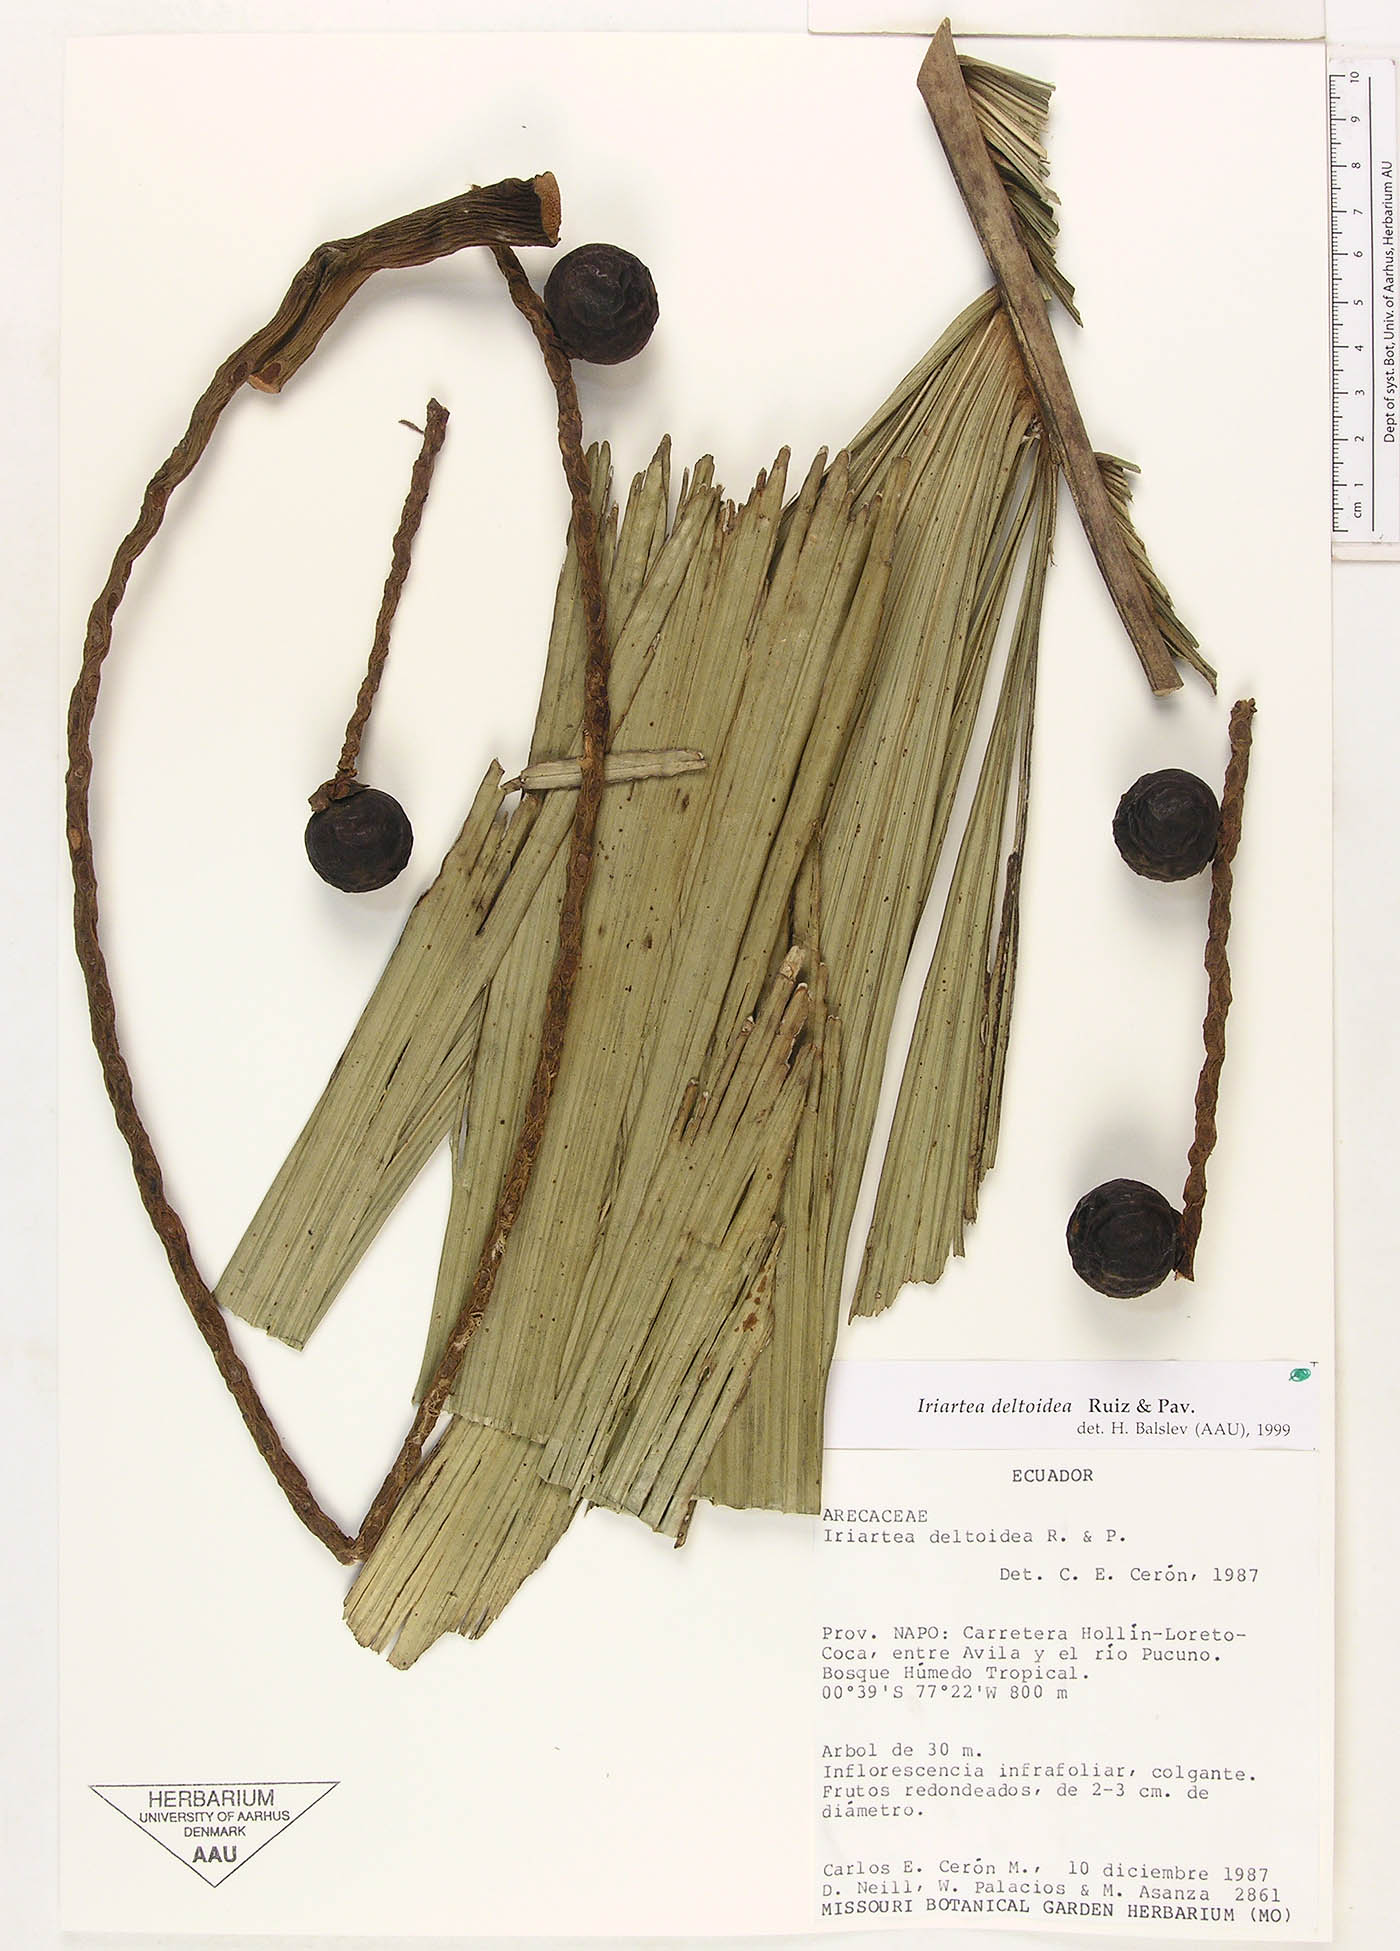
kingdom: Plantae
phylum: Tracheophyta
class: Liliopsida
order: Arecales
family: Arecaceae
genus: Iriartea
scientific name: Iriartea deltoidea
